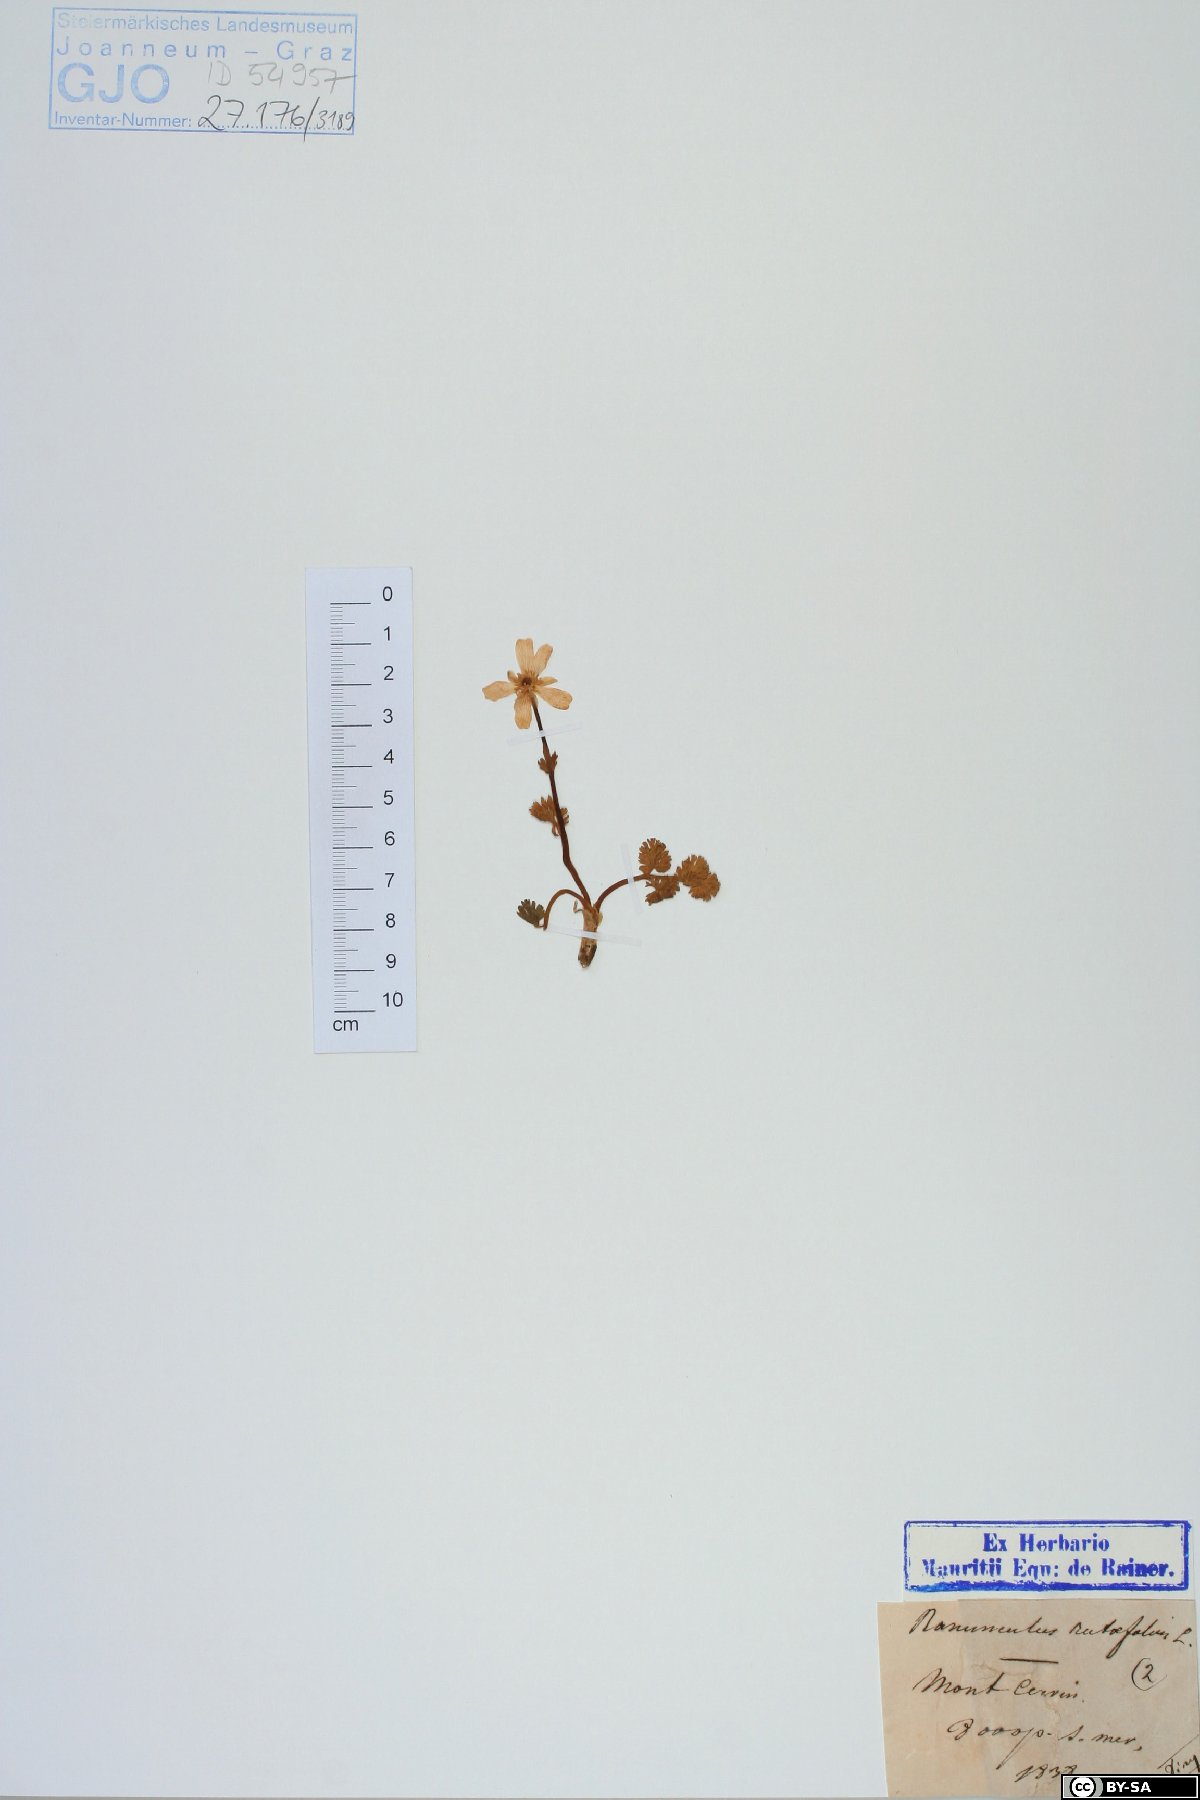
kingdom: Plantae
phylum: Tracheophyta
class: Magnoliopsida
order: Ranunculales
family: Ranunculaceae
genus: Callianthemum
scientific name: Callianthemum anemonoides
